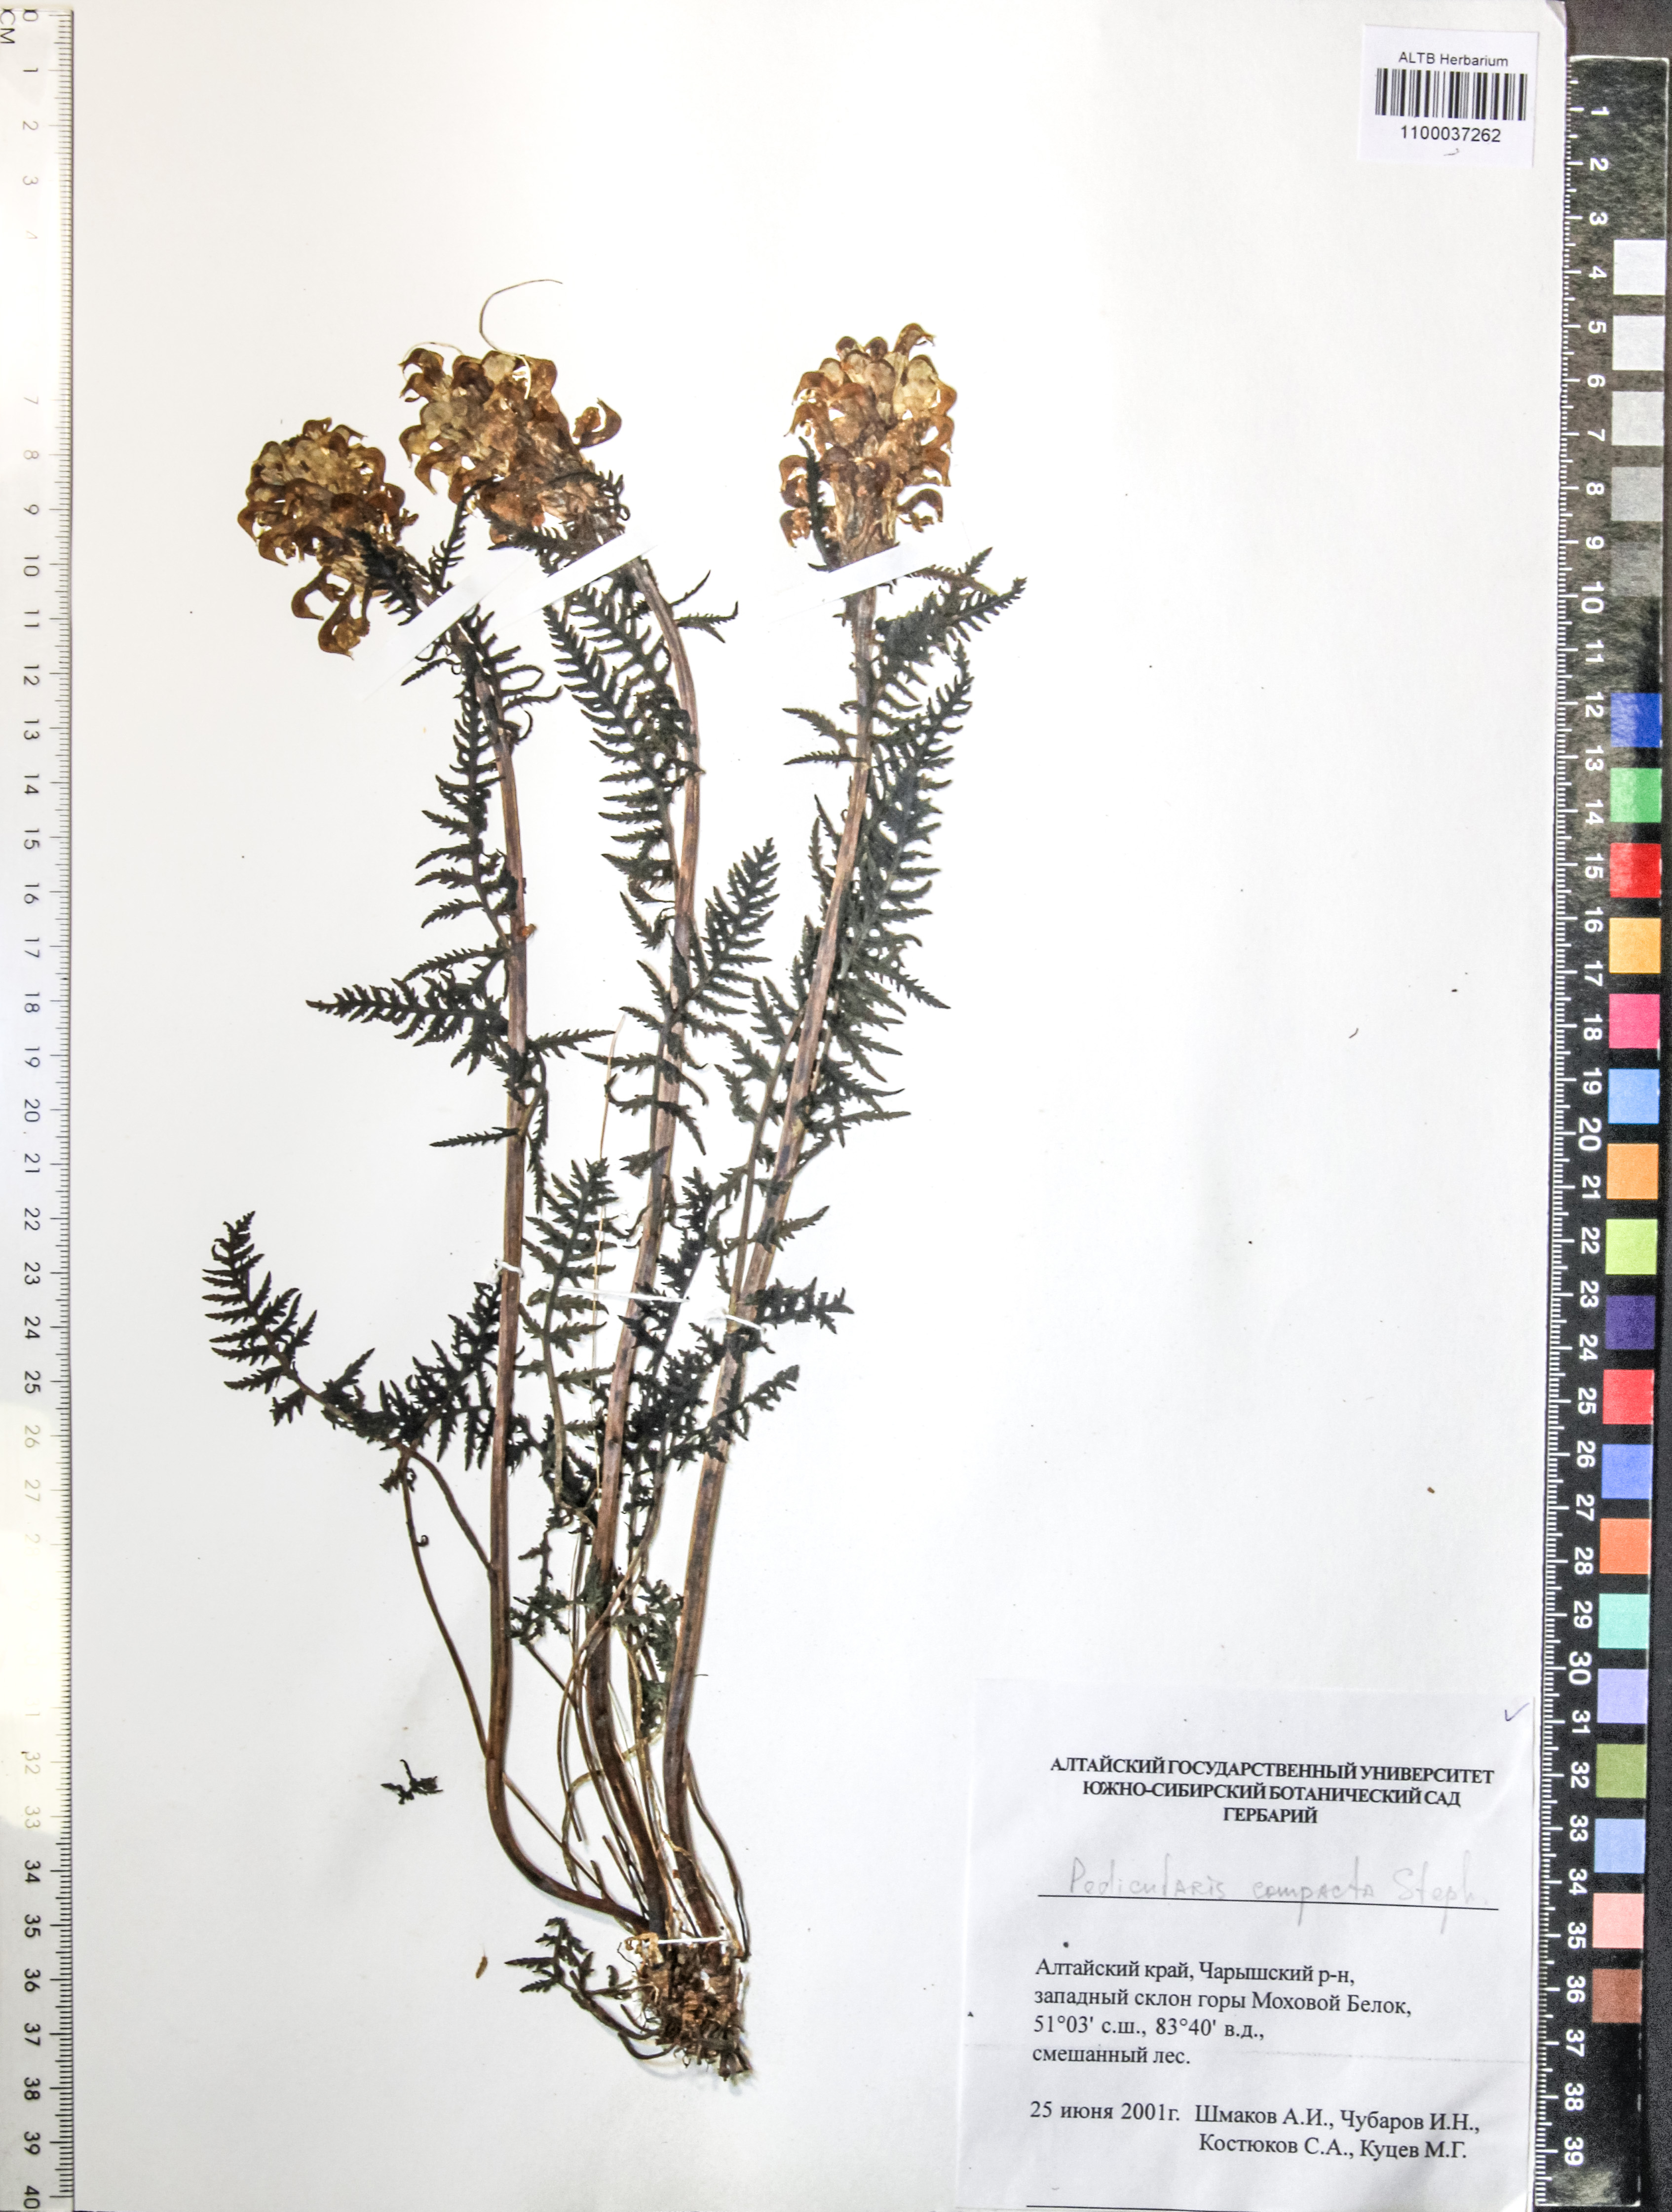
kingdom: Plantae
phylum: Tracheophyta
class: Magnoliopsida
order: Lamiales
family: Orobanchaceae
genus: Pedicularis
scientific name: Pedicularis compacta
